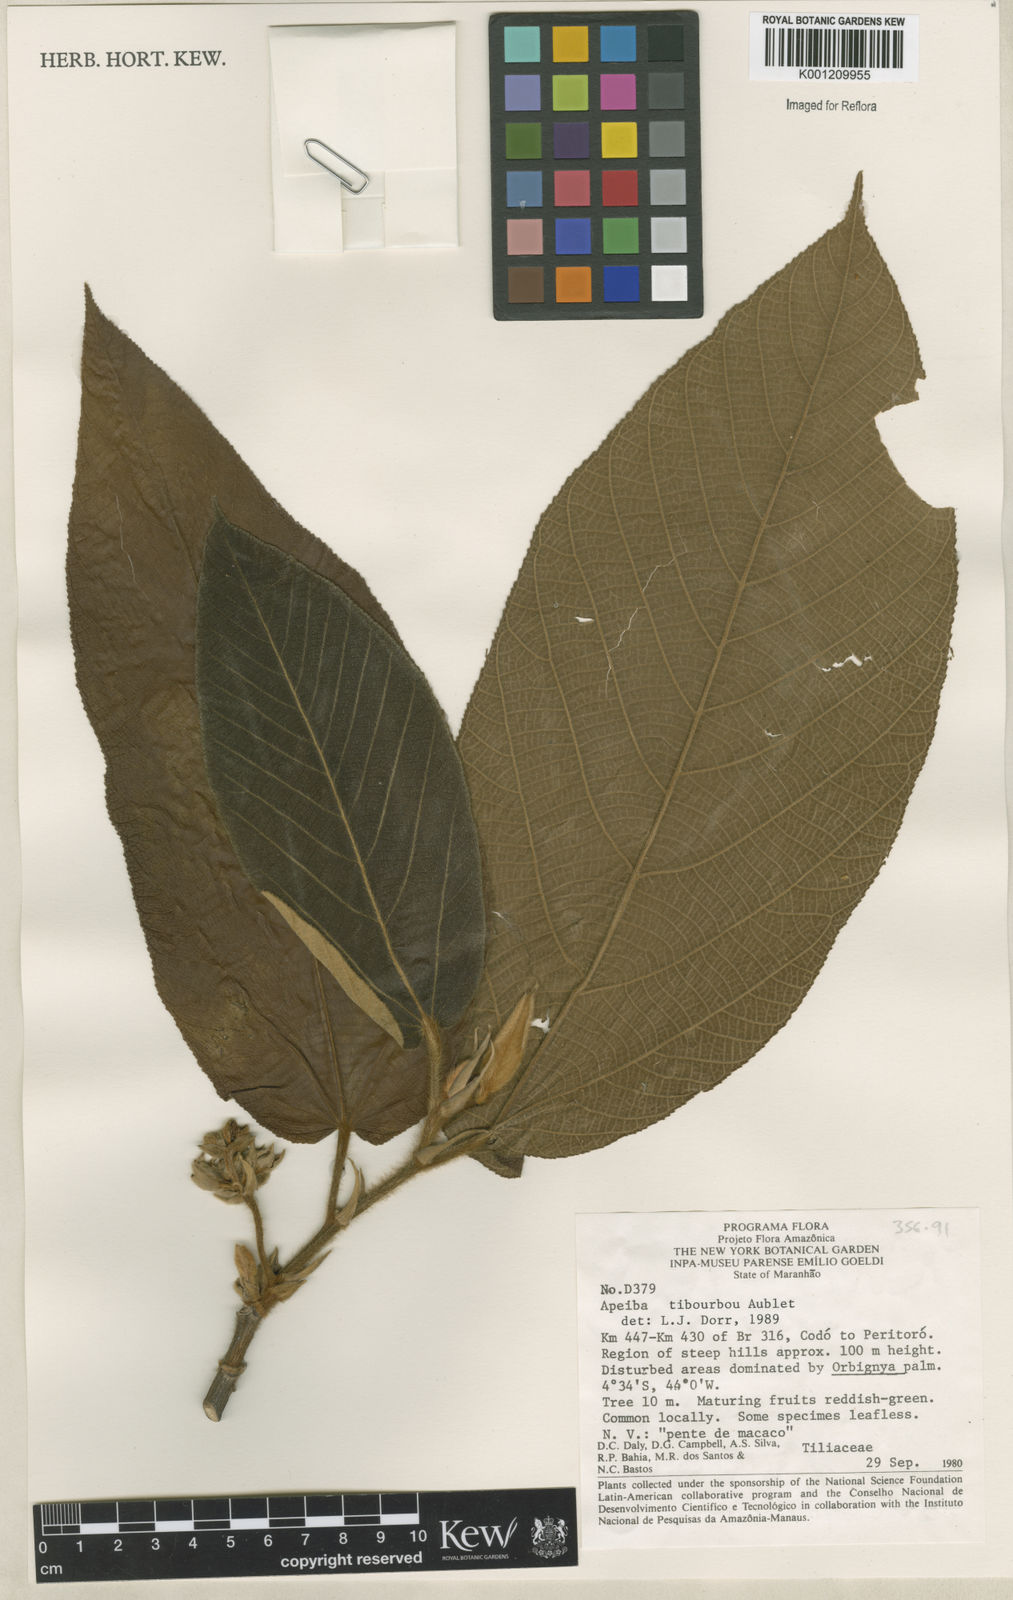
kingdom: Plantae
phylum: Tracheophyta
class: Magnoliopsida
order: Malvales
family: Malvaceae
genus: Apeiba
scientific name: Apeiba tibourbou
